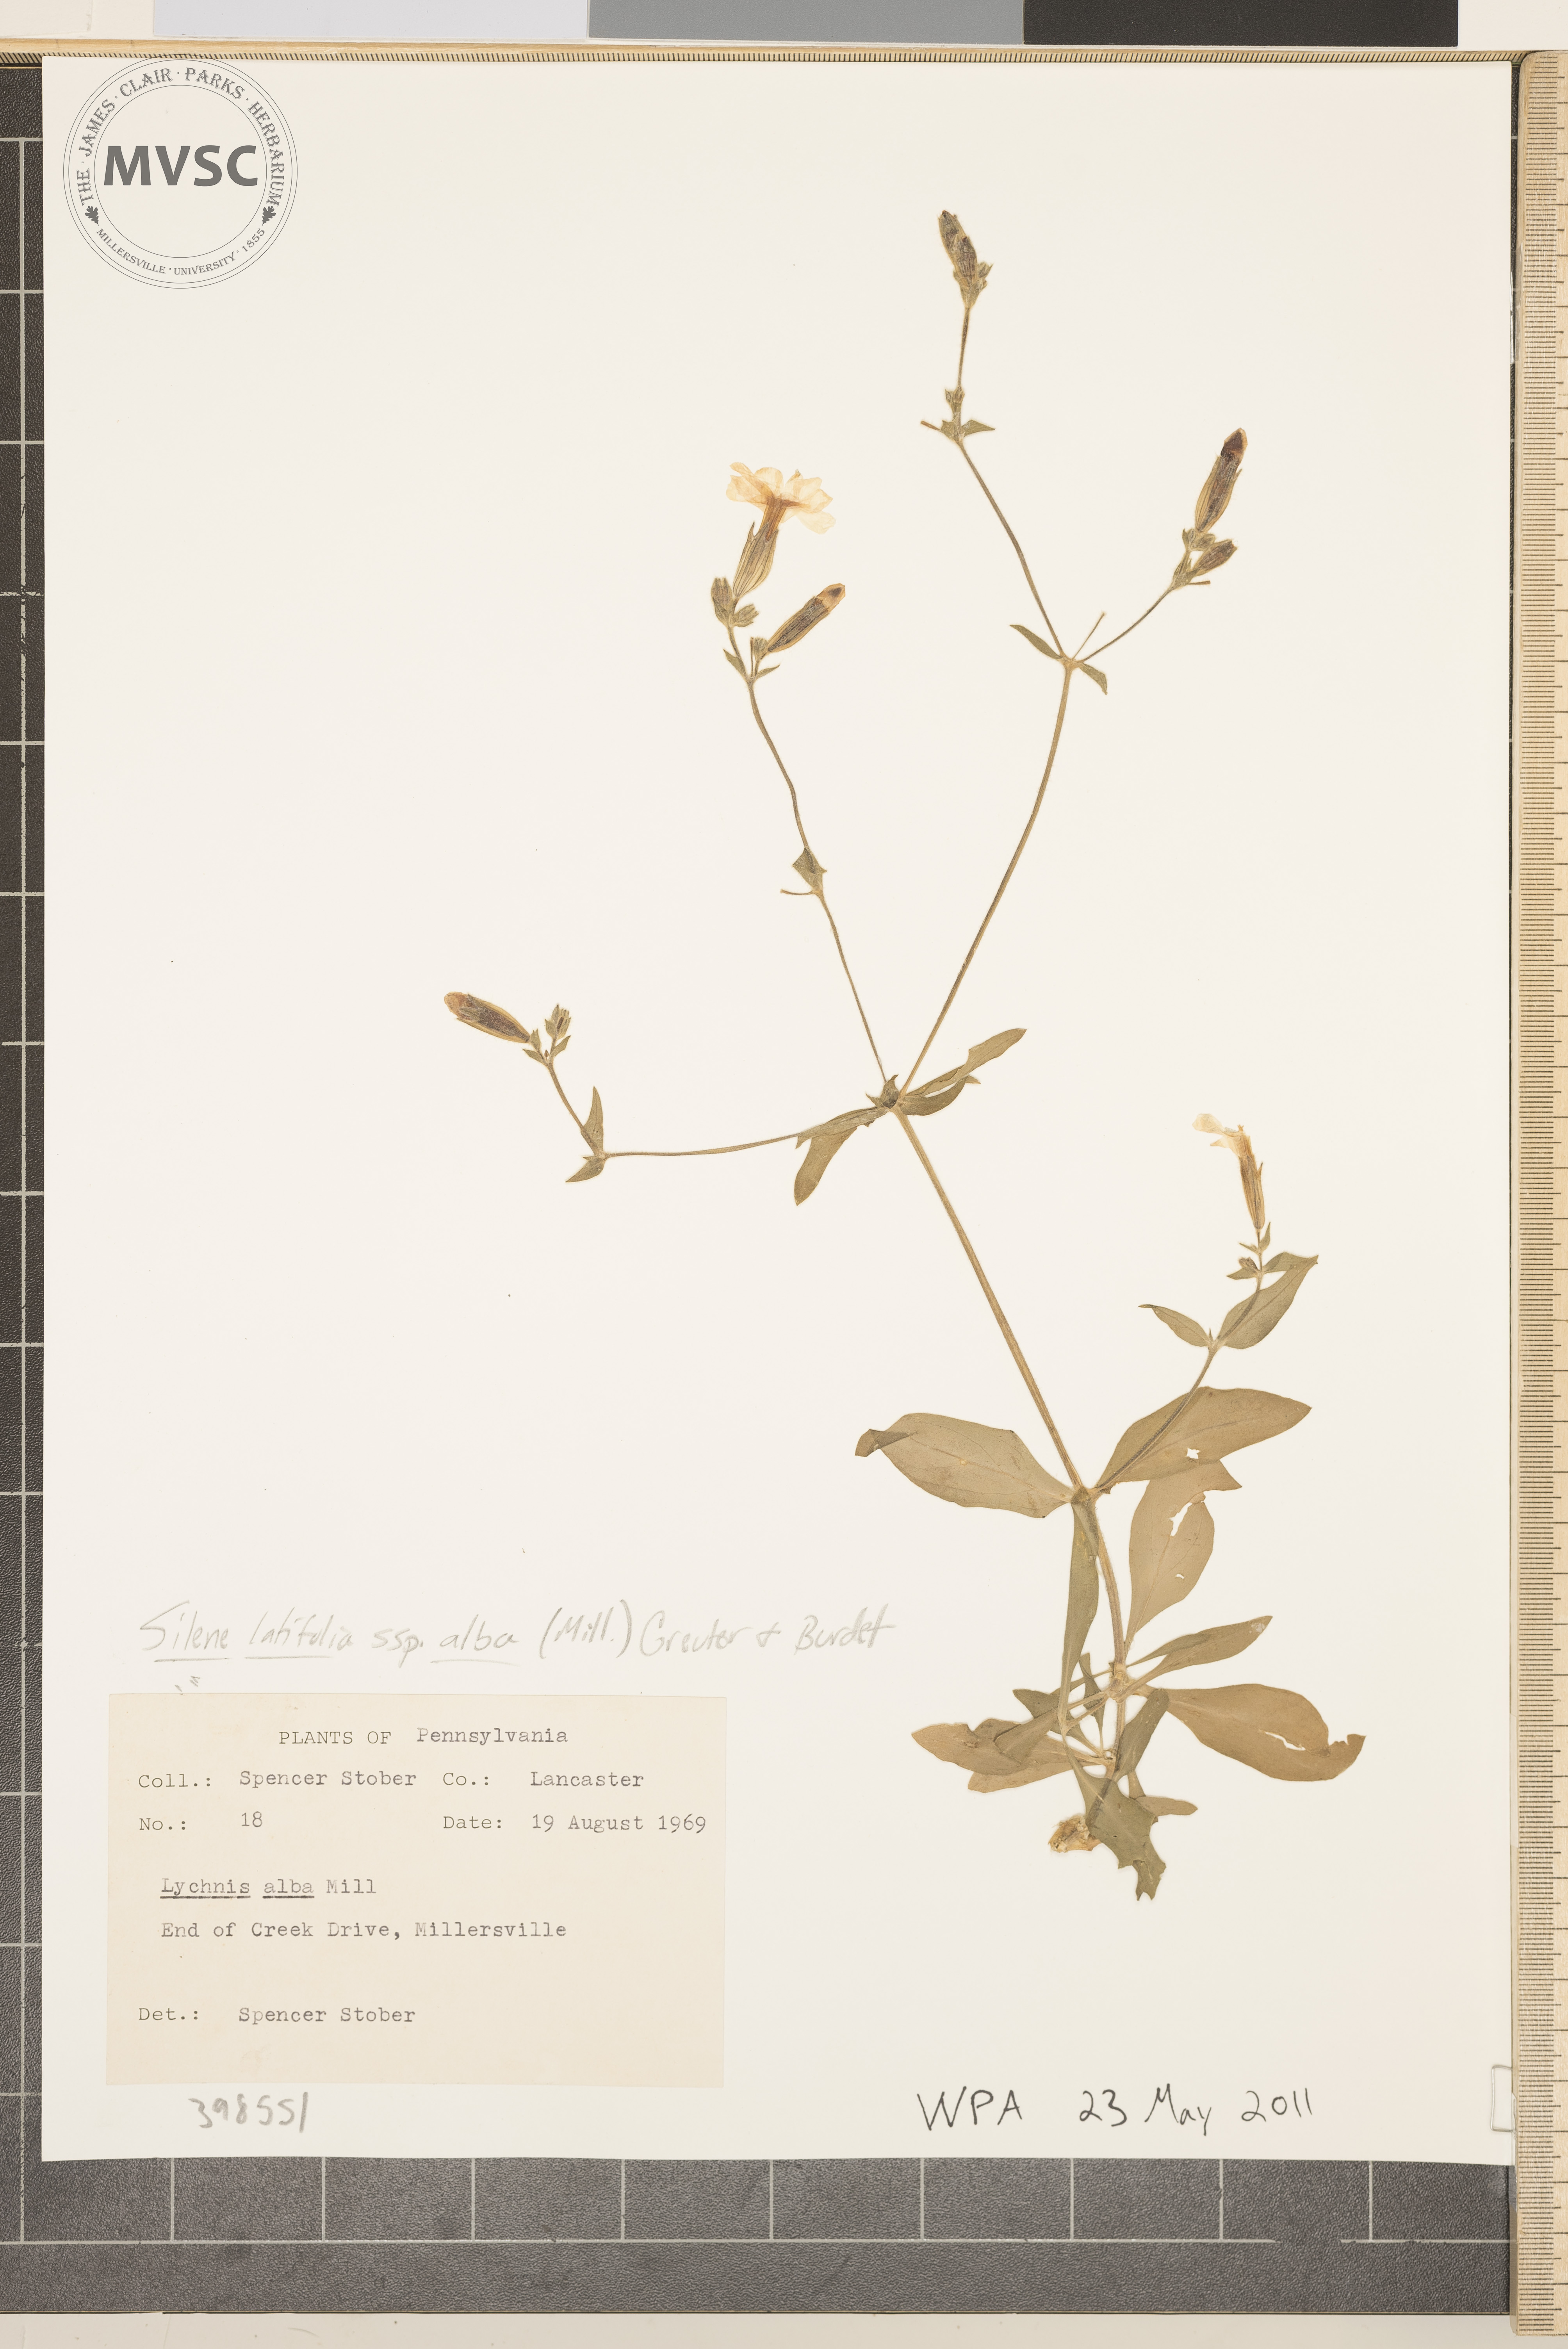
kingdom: Plantae
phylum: Tracheophyta
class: Magnoliopsida
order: Caryophyllales
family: Caryophyllaceae
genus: Silene
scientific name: Silene latifolia
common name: White campion
